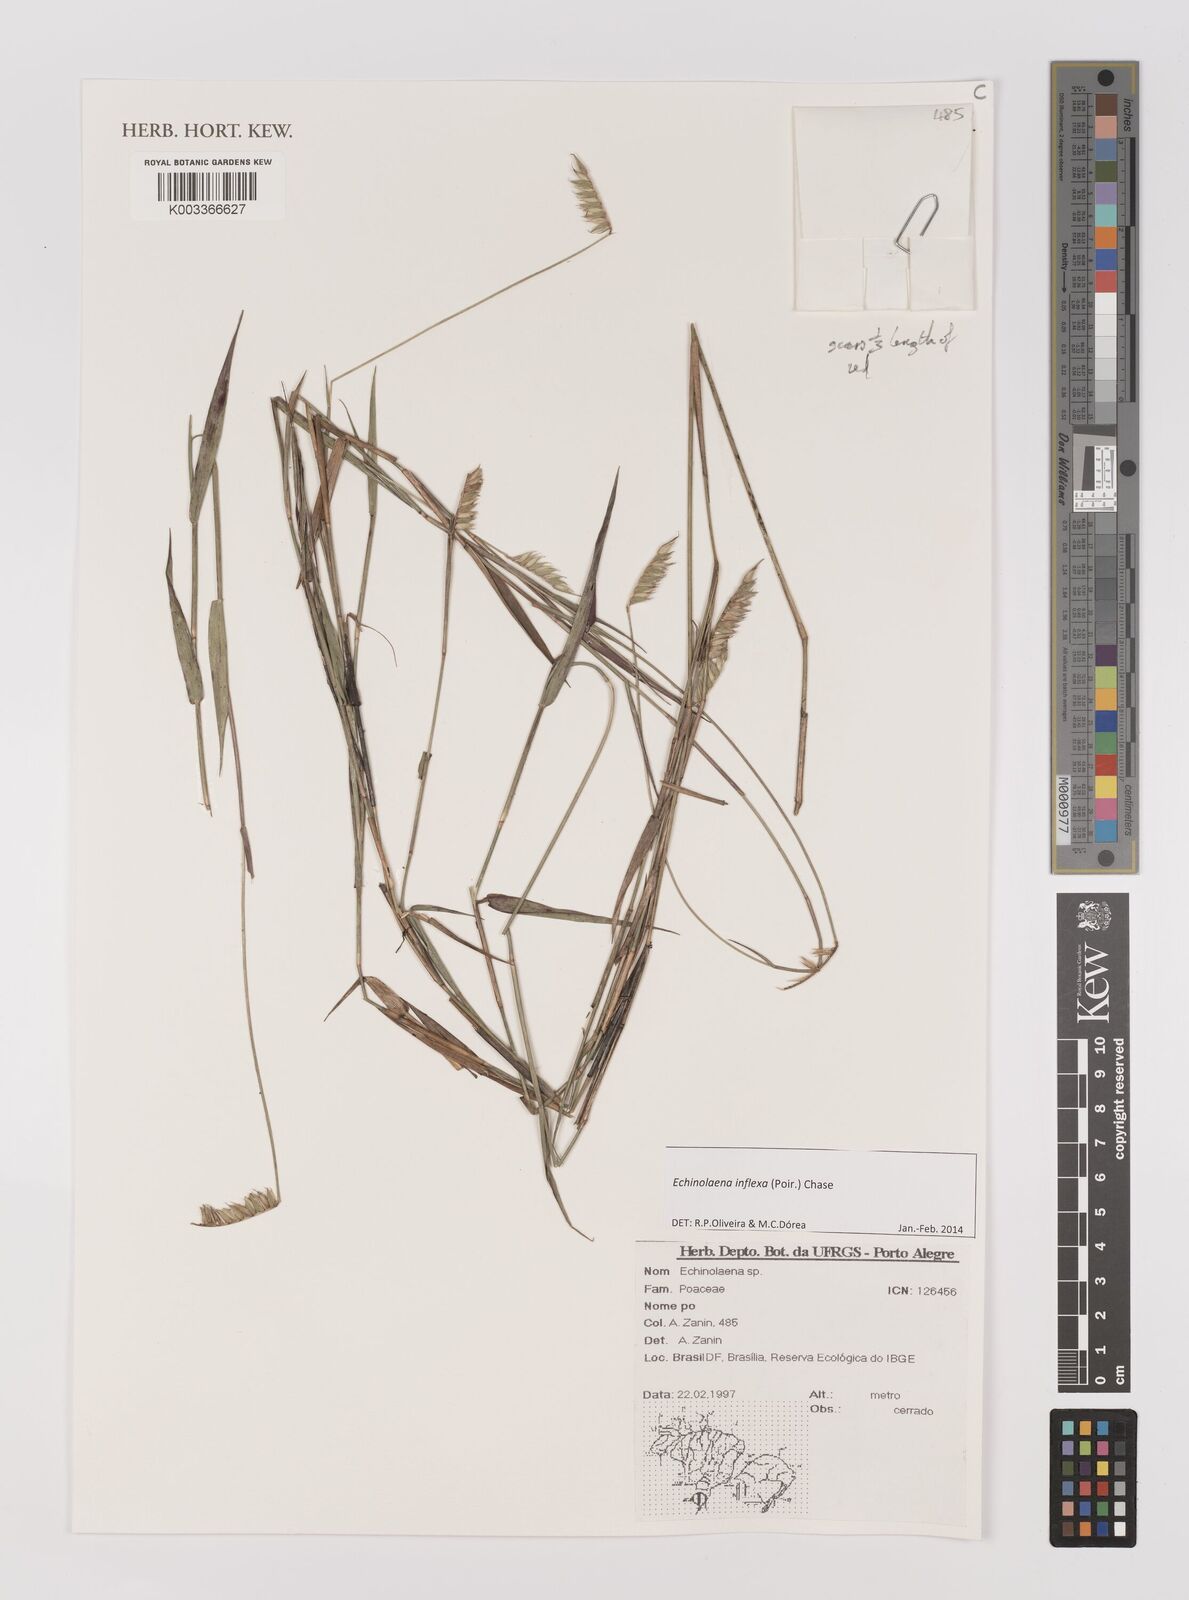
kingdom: Plantae
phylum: Tracheophyta
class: Liliopsida
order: Poales
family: Poaceae
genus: Echinolaena
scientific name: Echinolaena inflexa
